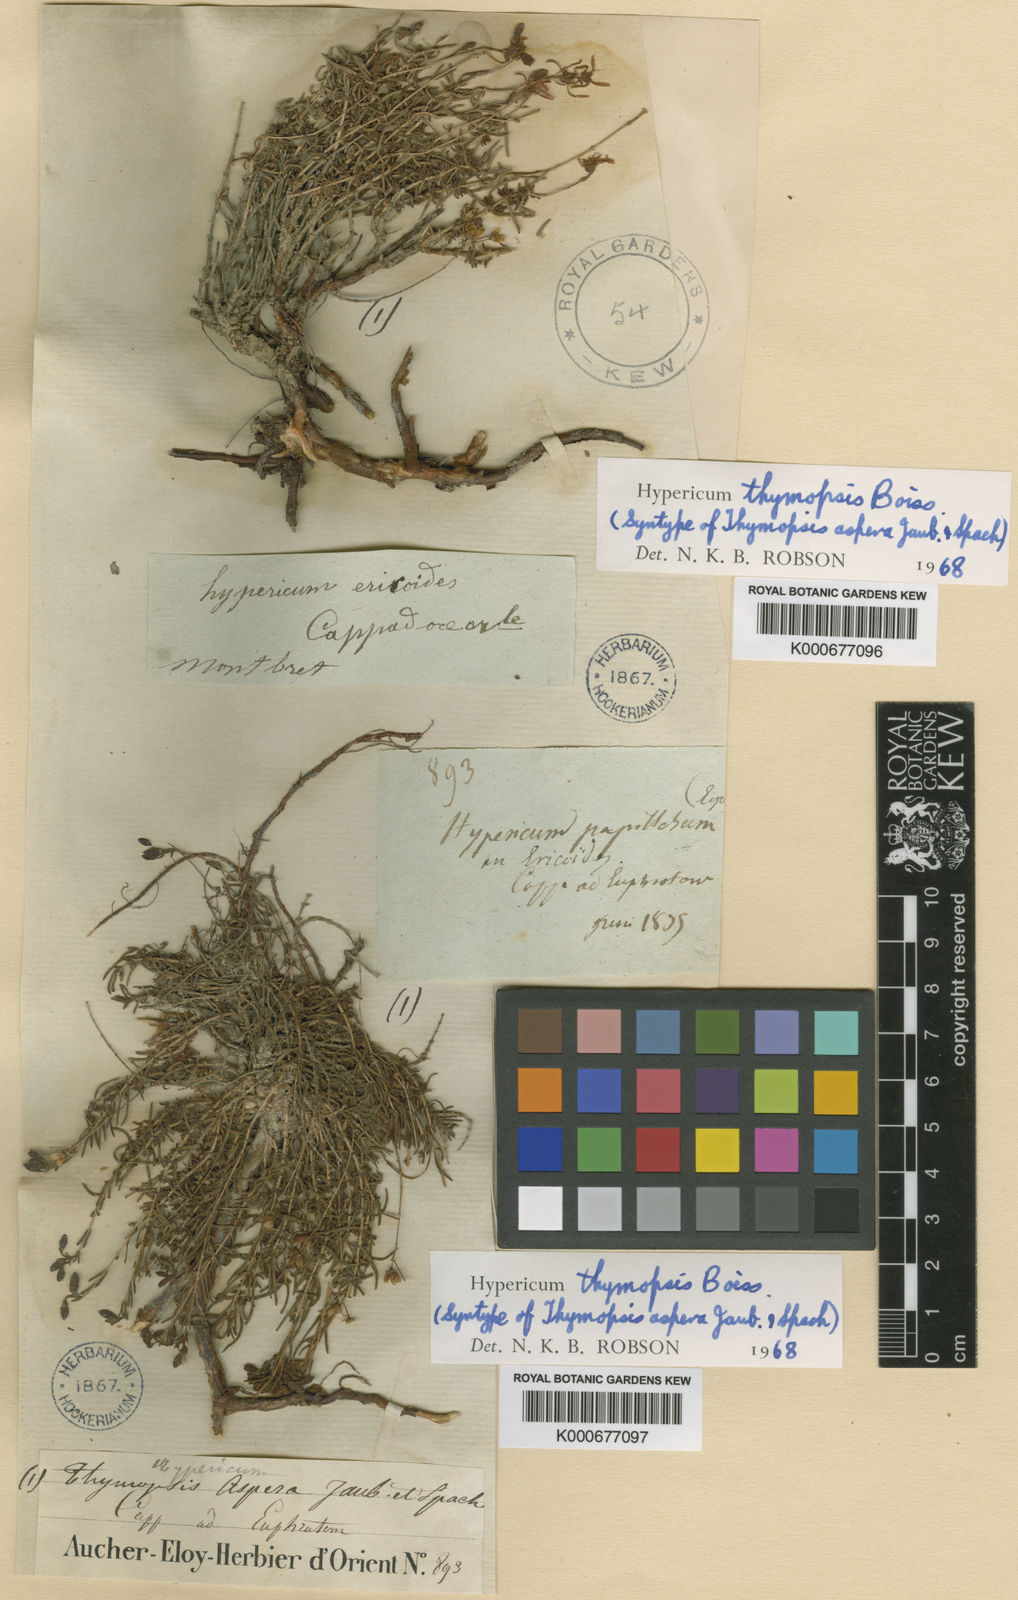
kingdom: Plantae
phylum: Tracheophyta
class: Magnoliopsida
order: Malpighiales
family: Hypericaceae
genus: Hypericum
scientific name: Hypericum thymopsis
